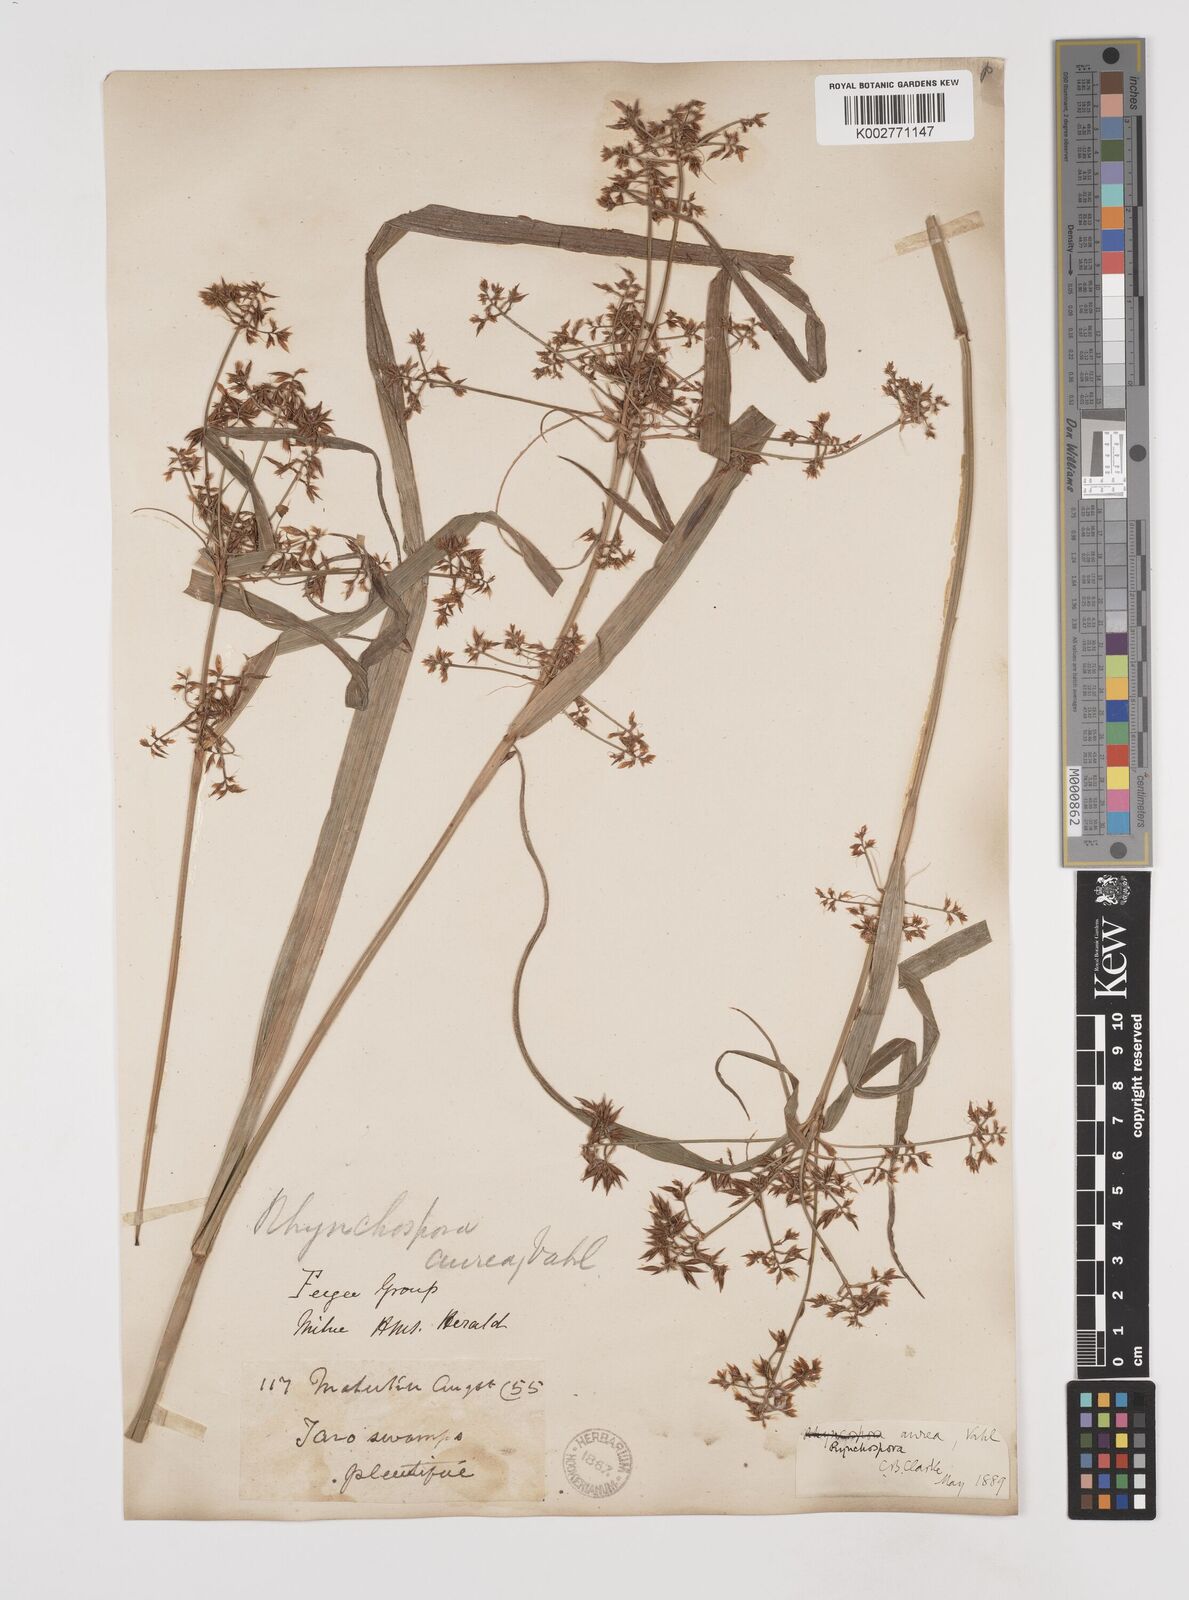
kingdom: Plantae
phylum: Tracheophyta
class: Liliopsida
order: Poales
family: Cyperaceae
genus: Rhynchospora
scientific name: Rhynchospora corymbosa
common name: Golden beak sedge
